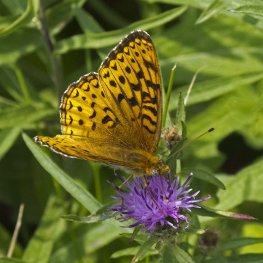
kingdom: Animalia
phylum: Arthropoda
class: Insecta
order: Lepidoptera
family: Nymphalidae
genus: Speyeria
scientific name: Speyeria atlantis
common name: Atlantis Fritillary
